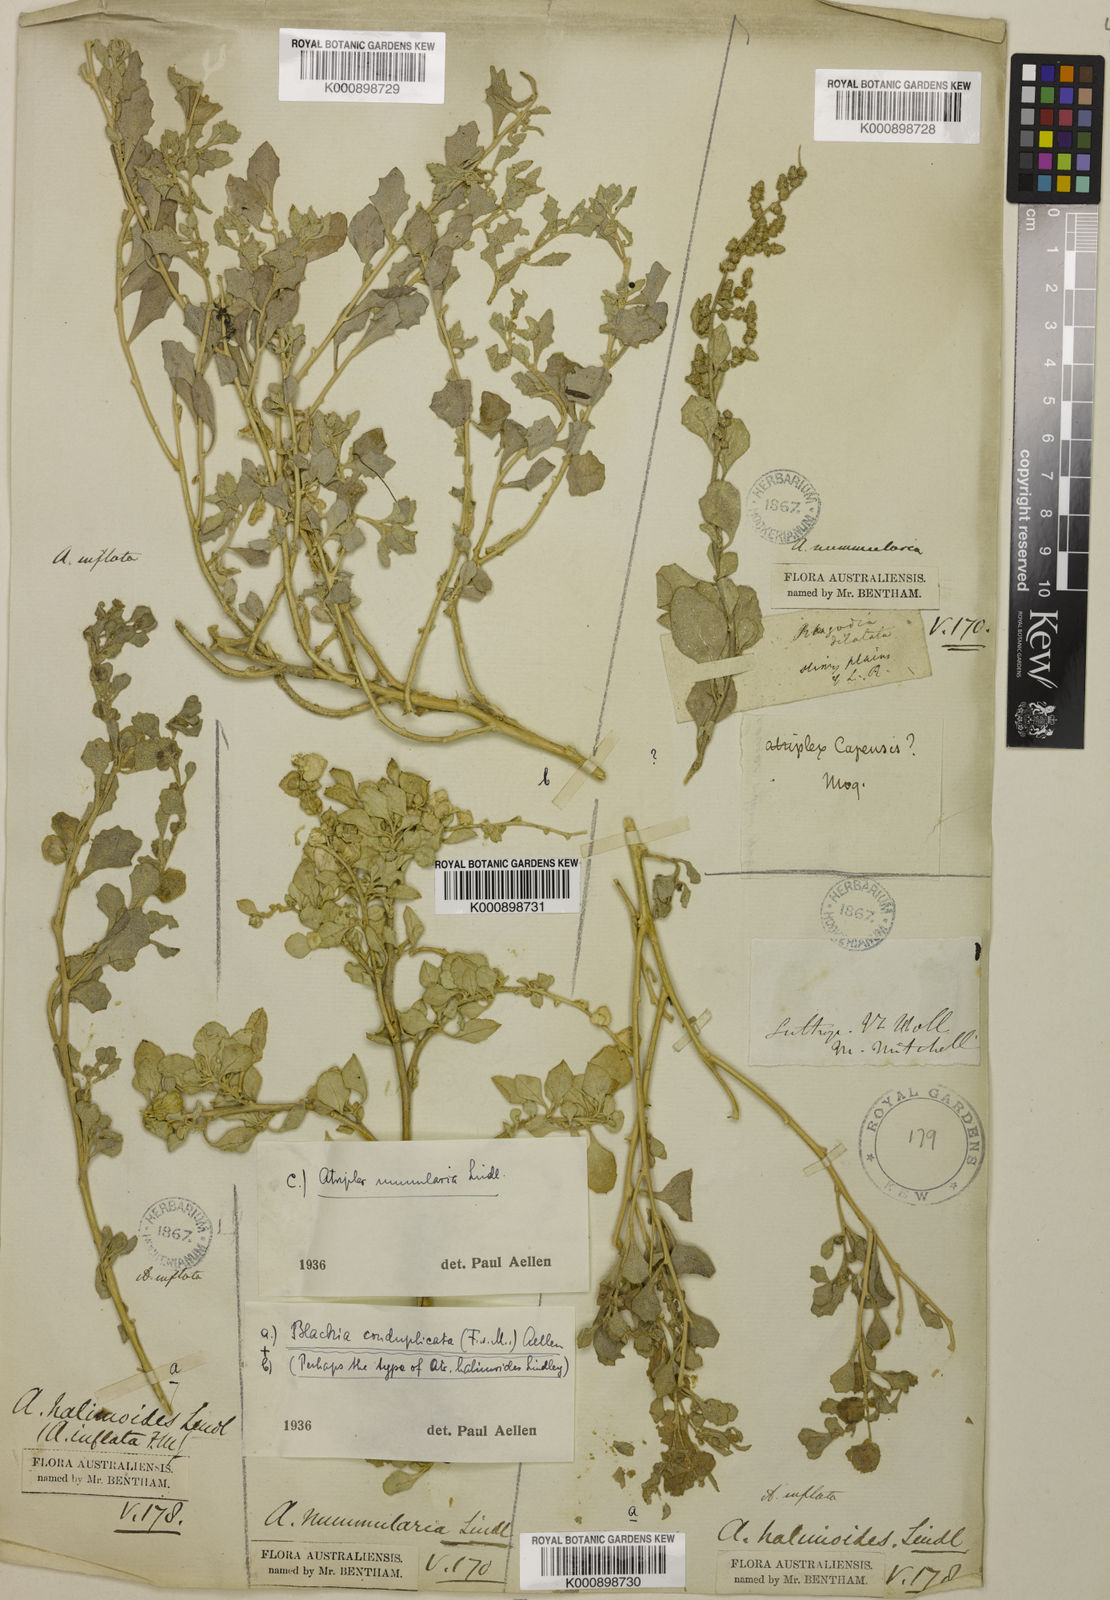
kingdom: Plantae
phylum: Tracheophyta
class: Magnoliopsida
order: Caryophyllales
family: Amaranthaceae
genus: Atriplex
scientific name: Atriplex lindleyi
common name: Lindley's saltbush
